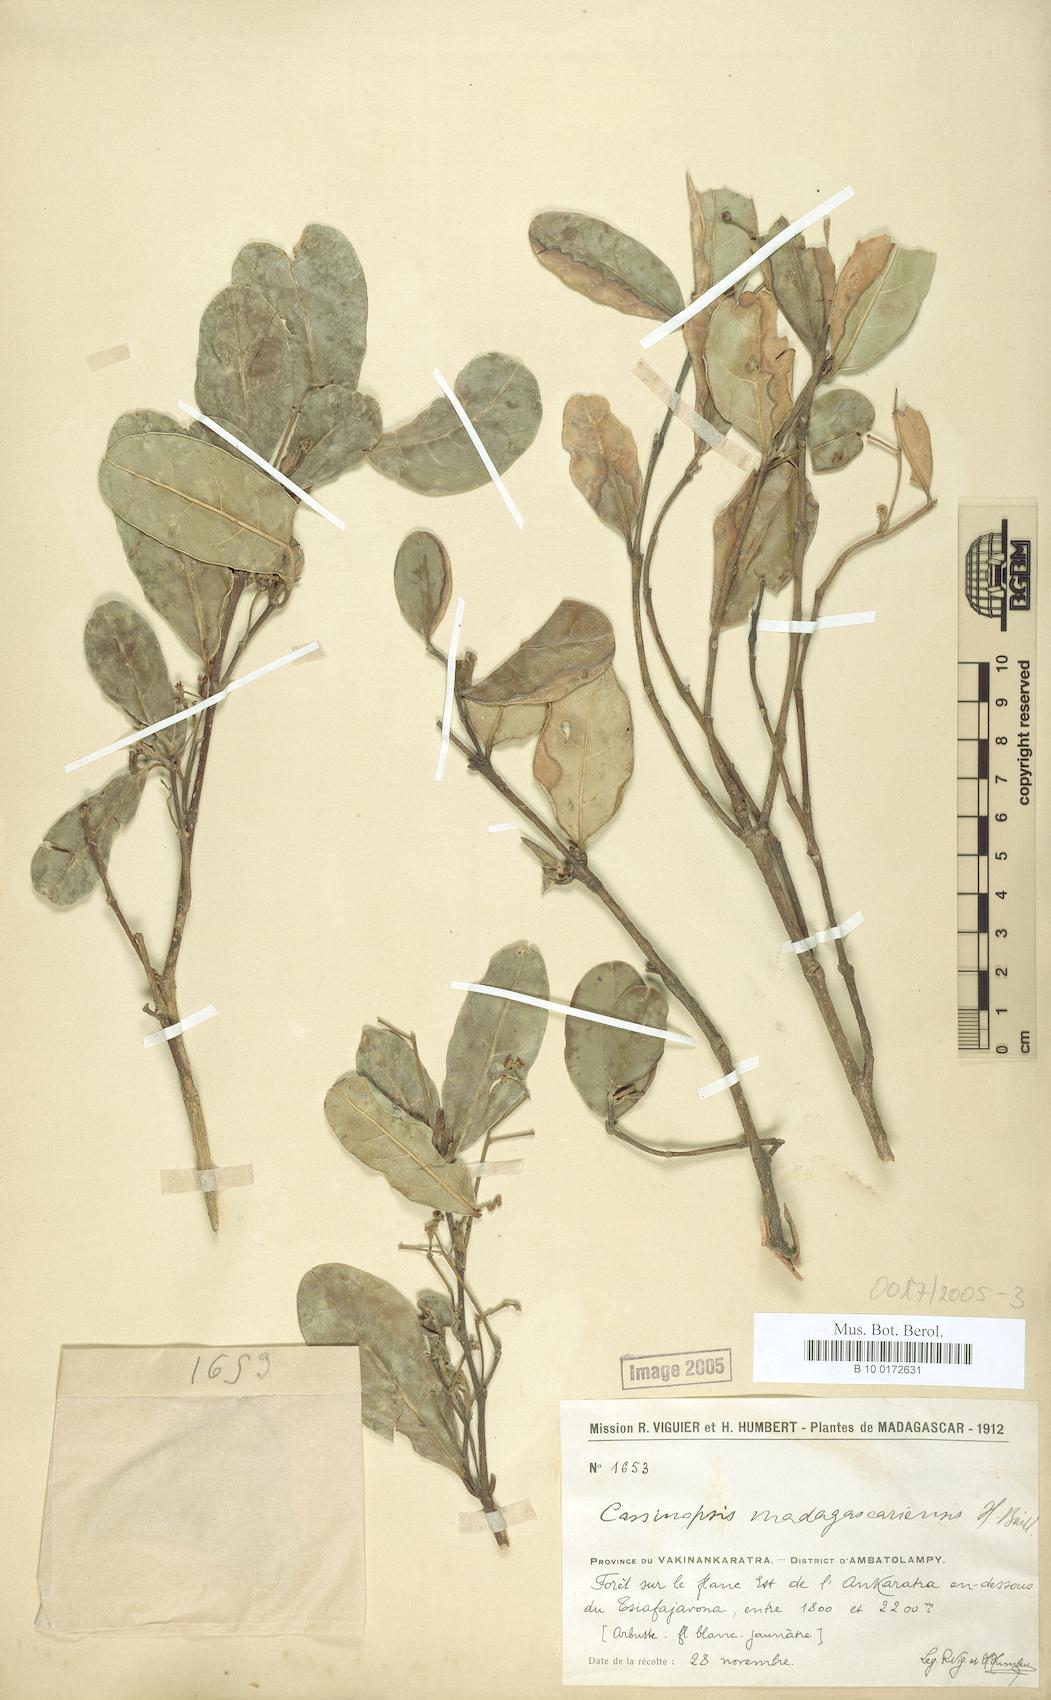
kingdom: Plantae
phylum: Tracheophyta
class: Magnoliopsida
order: Icacinales
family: Icacinaceae
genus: Cassinopsis
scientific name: Cassinopsis madagascariensis
